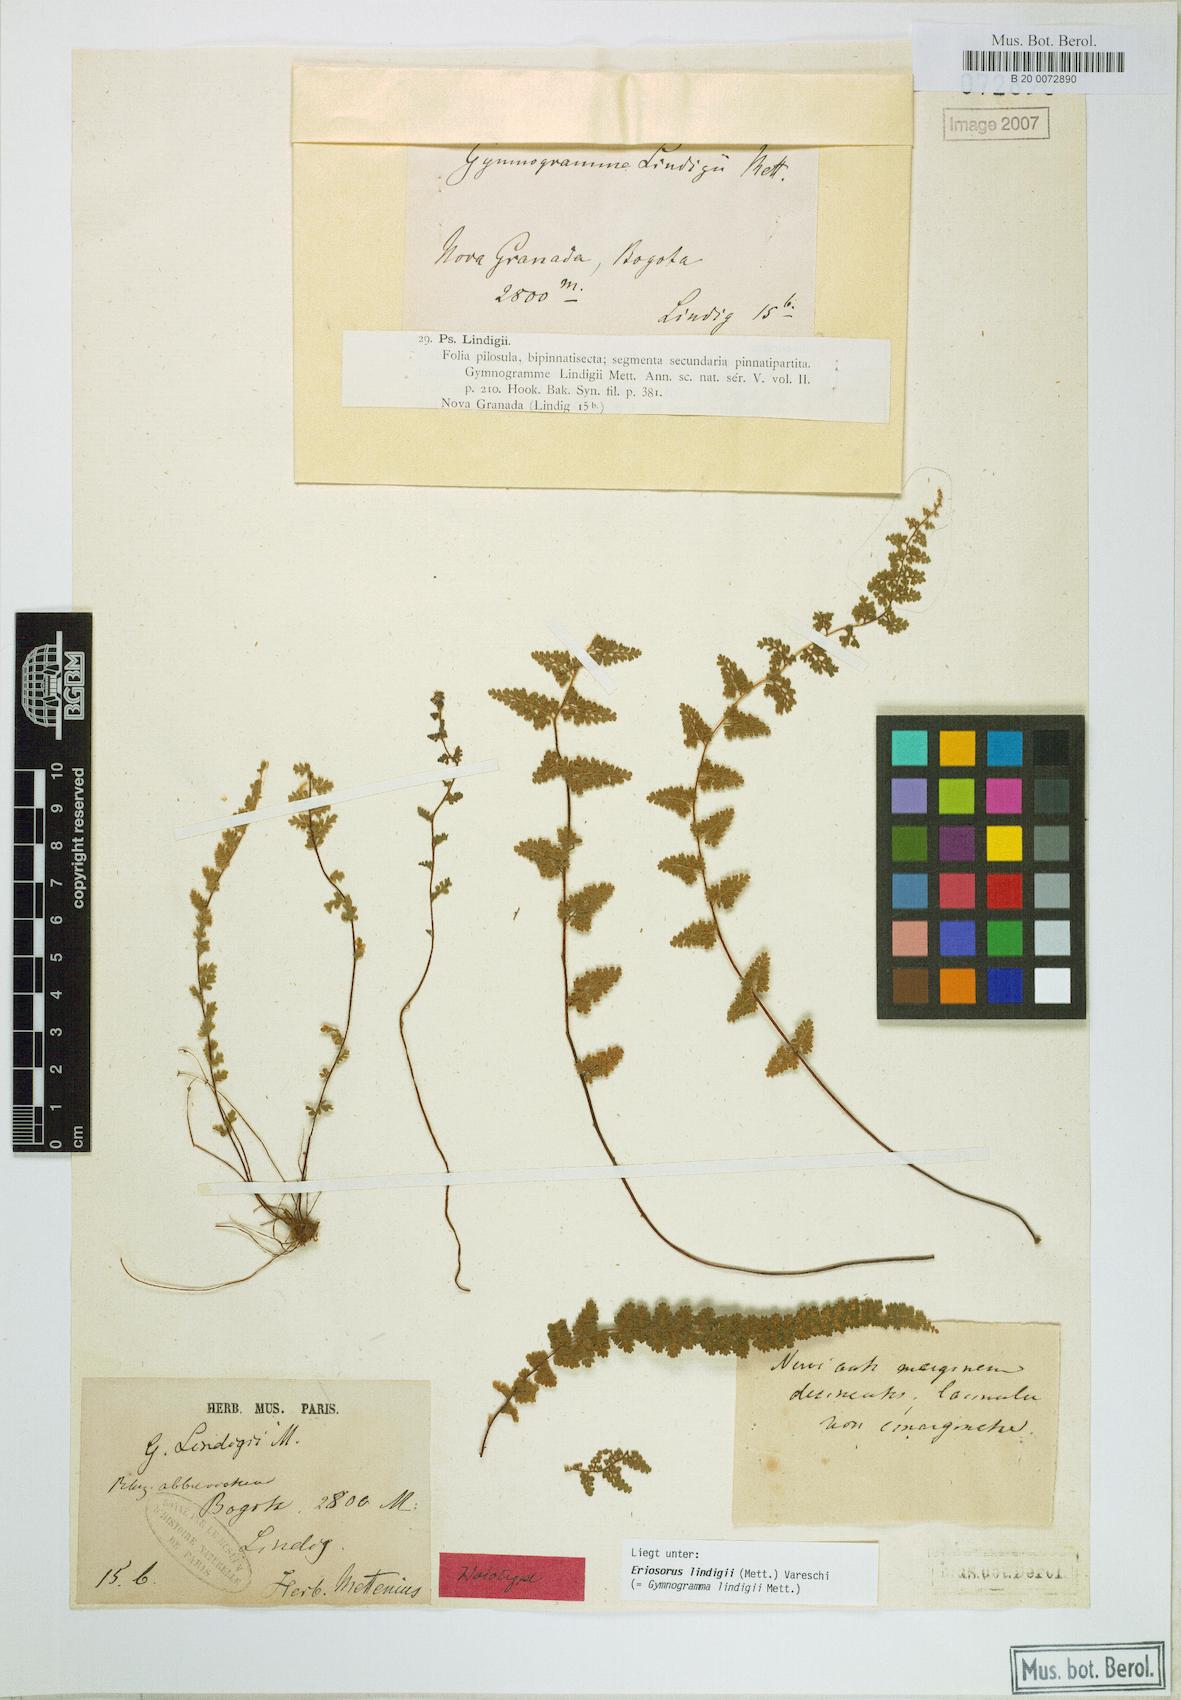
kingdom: Plantae
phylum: Tracheophyta
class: Polypodiopsida
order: Polypodiales
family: Pteridaceae
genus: Jamesonia
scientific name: Jamesonia lindigii
